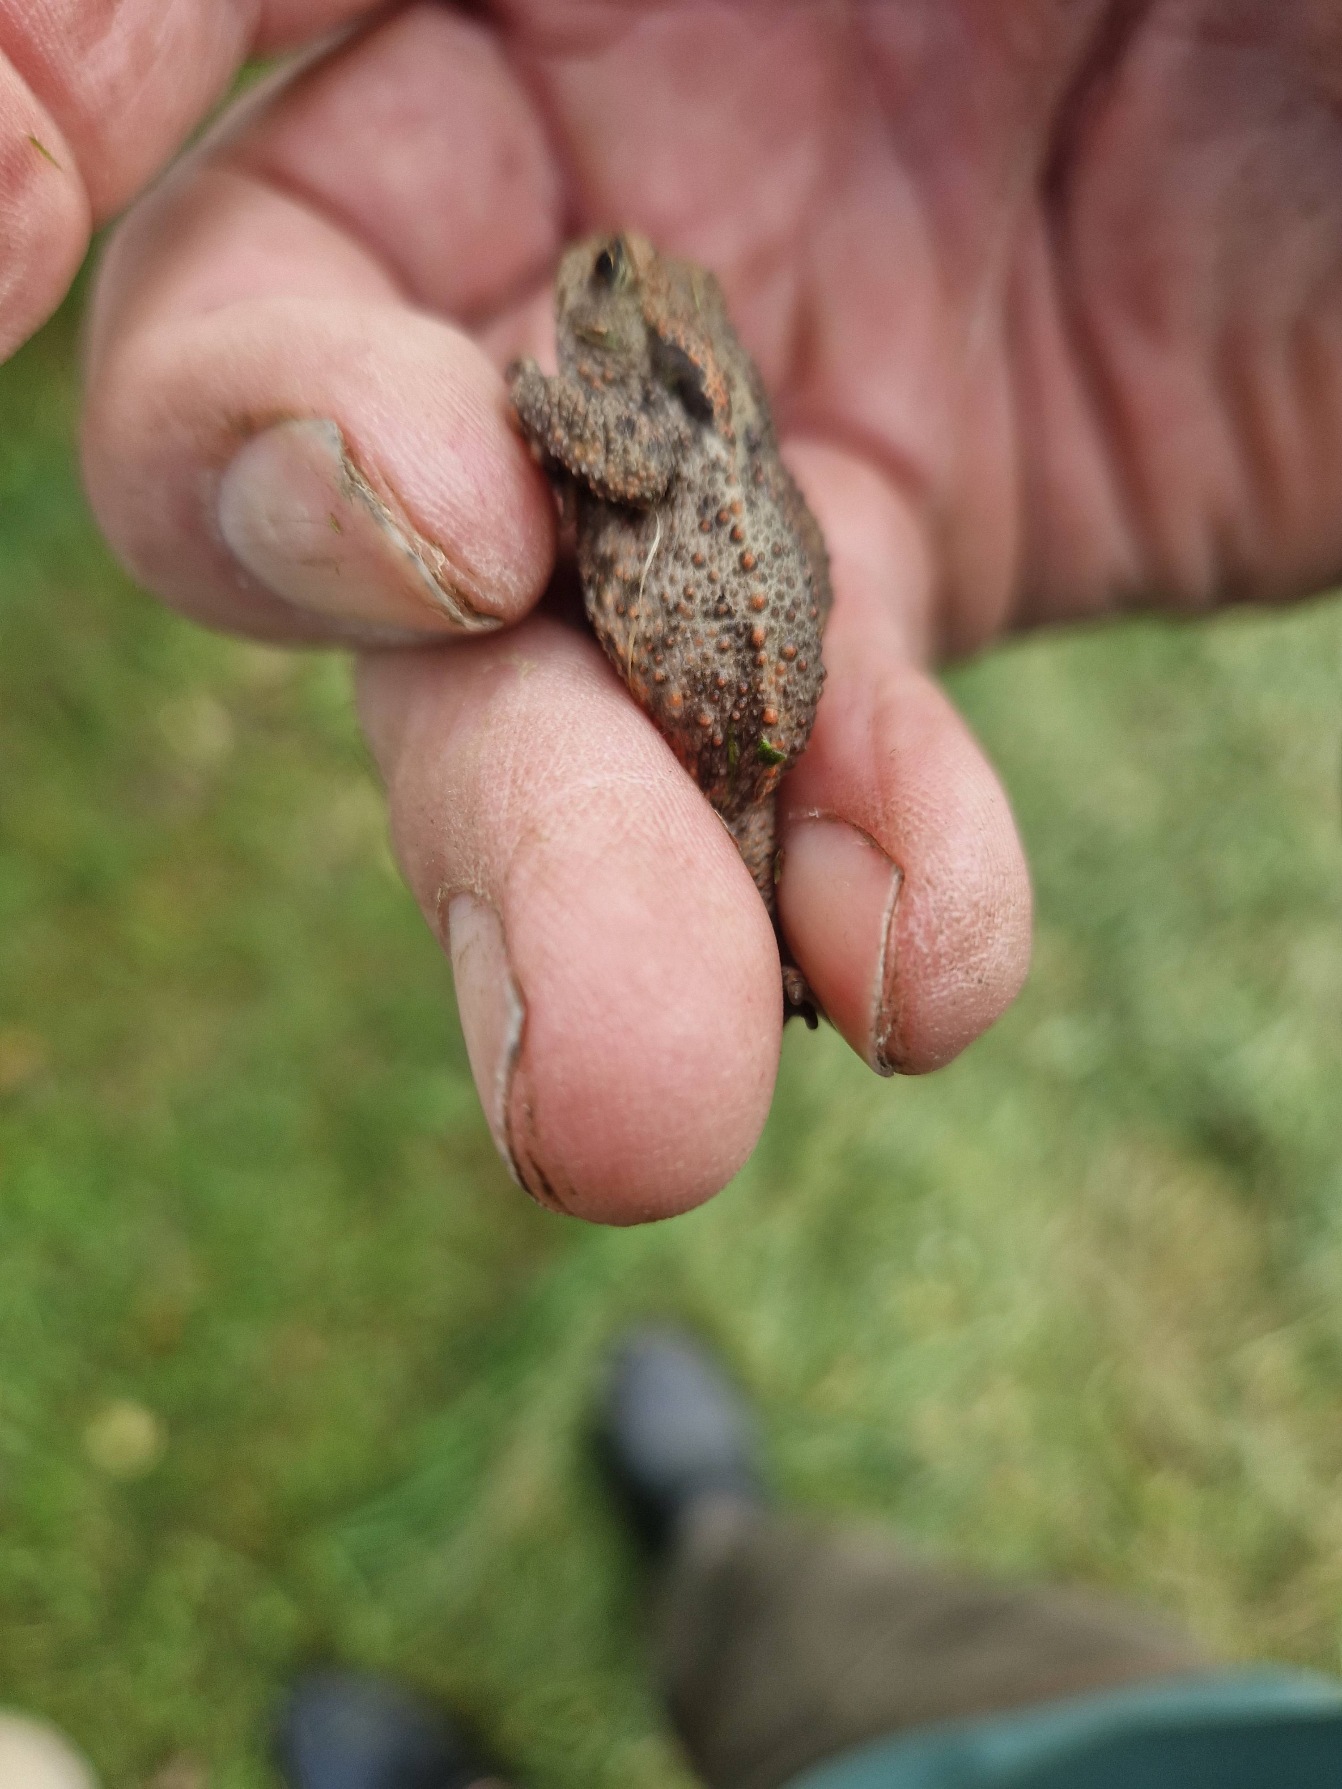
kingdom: Animalia
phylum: Chordata
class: Amphibia
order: Anura
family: Bufonidae
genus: Bufo
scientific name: Bufo bufo
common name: Skrubtudse
